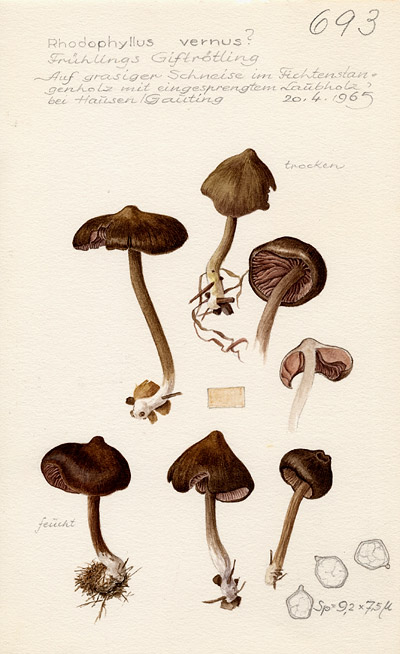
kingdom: Fungi
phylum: Basidiomycota
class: Agaricomycetes
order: Agaricales
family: Entolomataceae
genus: Entoloma
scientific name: Entoloma vernum
